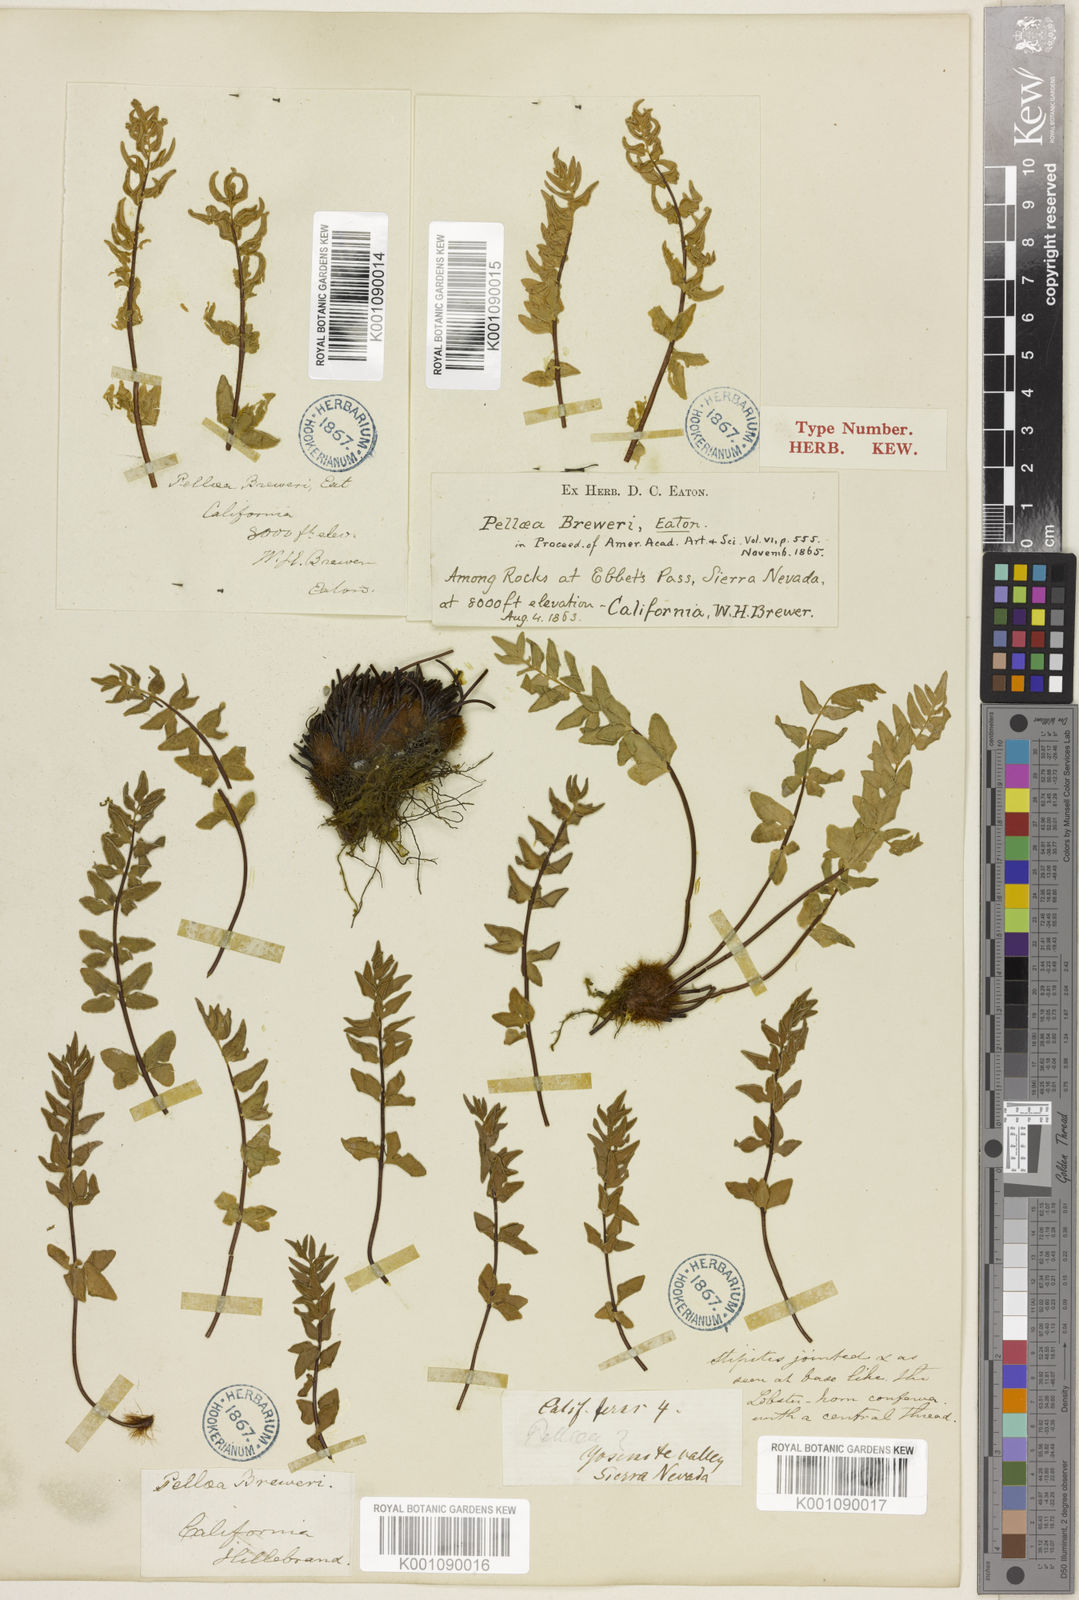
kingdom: Plantae
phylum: Tracheophyta
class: Polypodiopsida
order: Polypodiales
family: Pteridaceae
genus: Pellaea
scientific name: Pellaea breweri
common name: Brewer's cliffbrake
